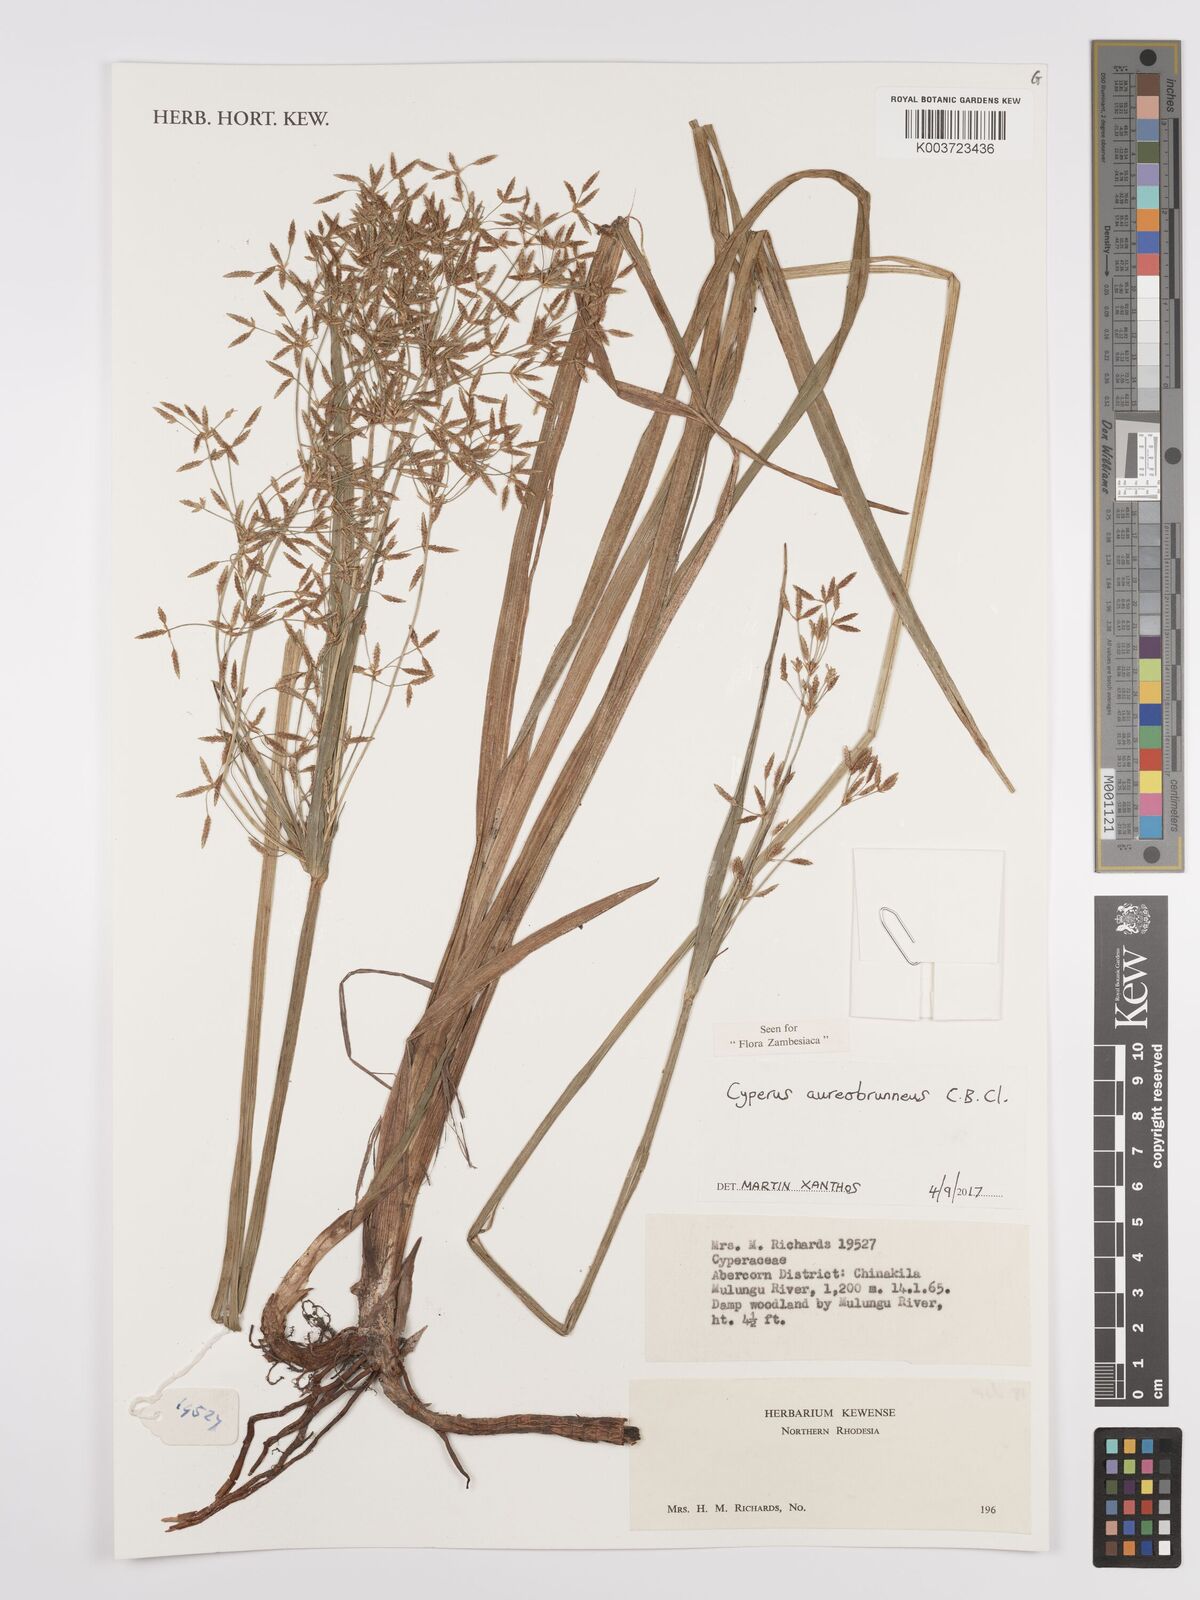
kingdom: Plantae
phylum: Tracheophyta
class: Liliopsida
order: Poales
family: Cyperaceae
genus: Cyperus
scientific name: Cyperus aureobrunneus
